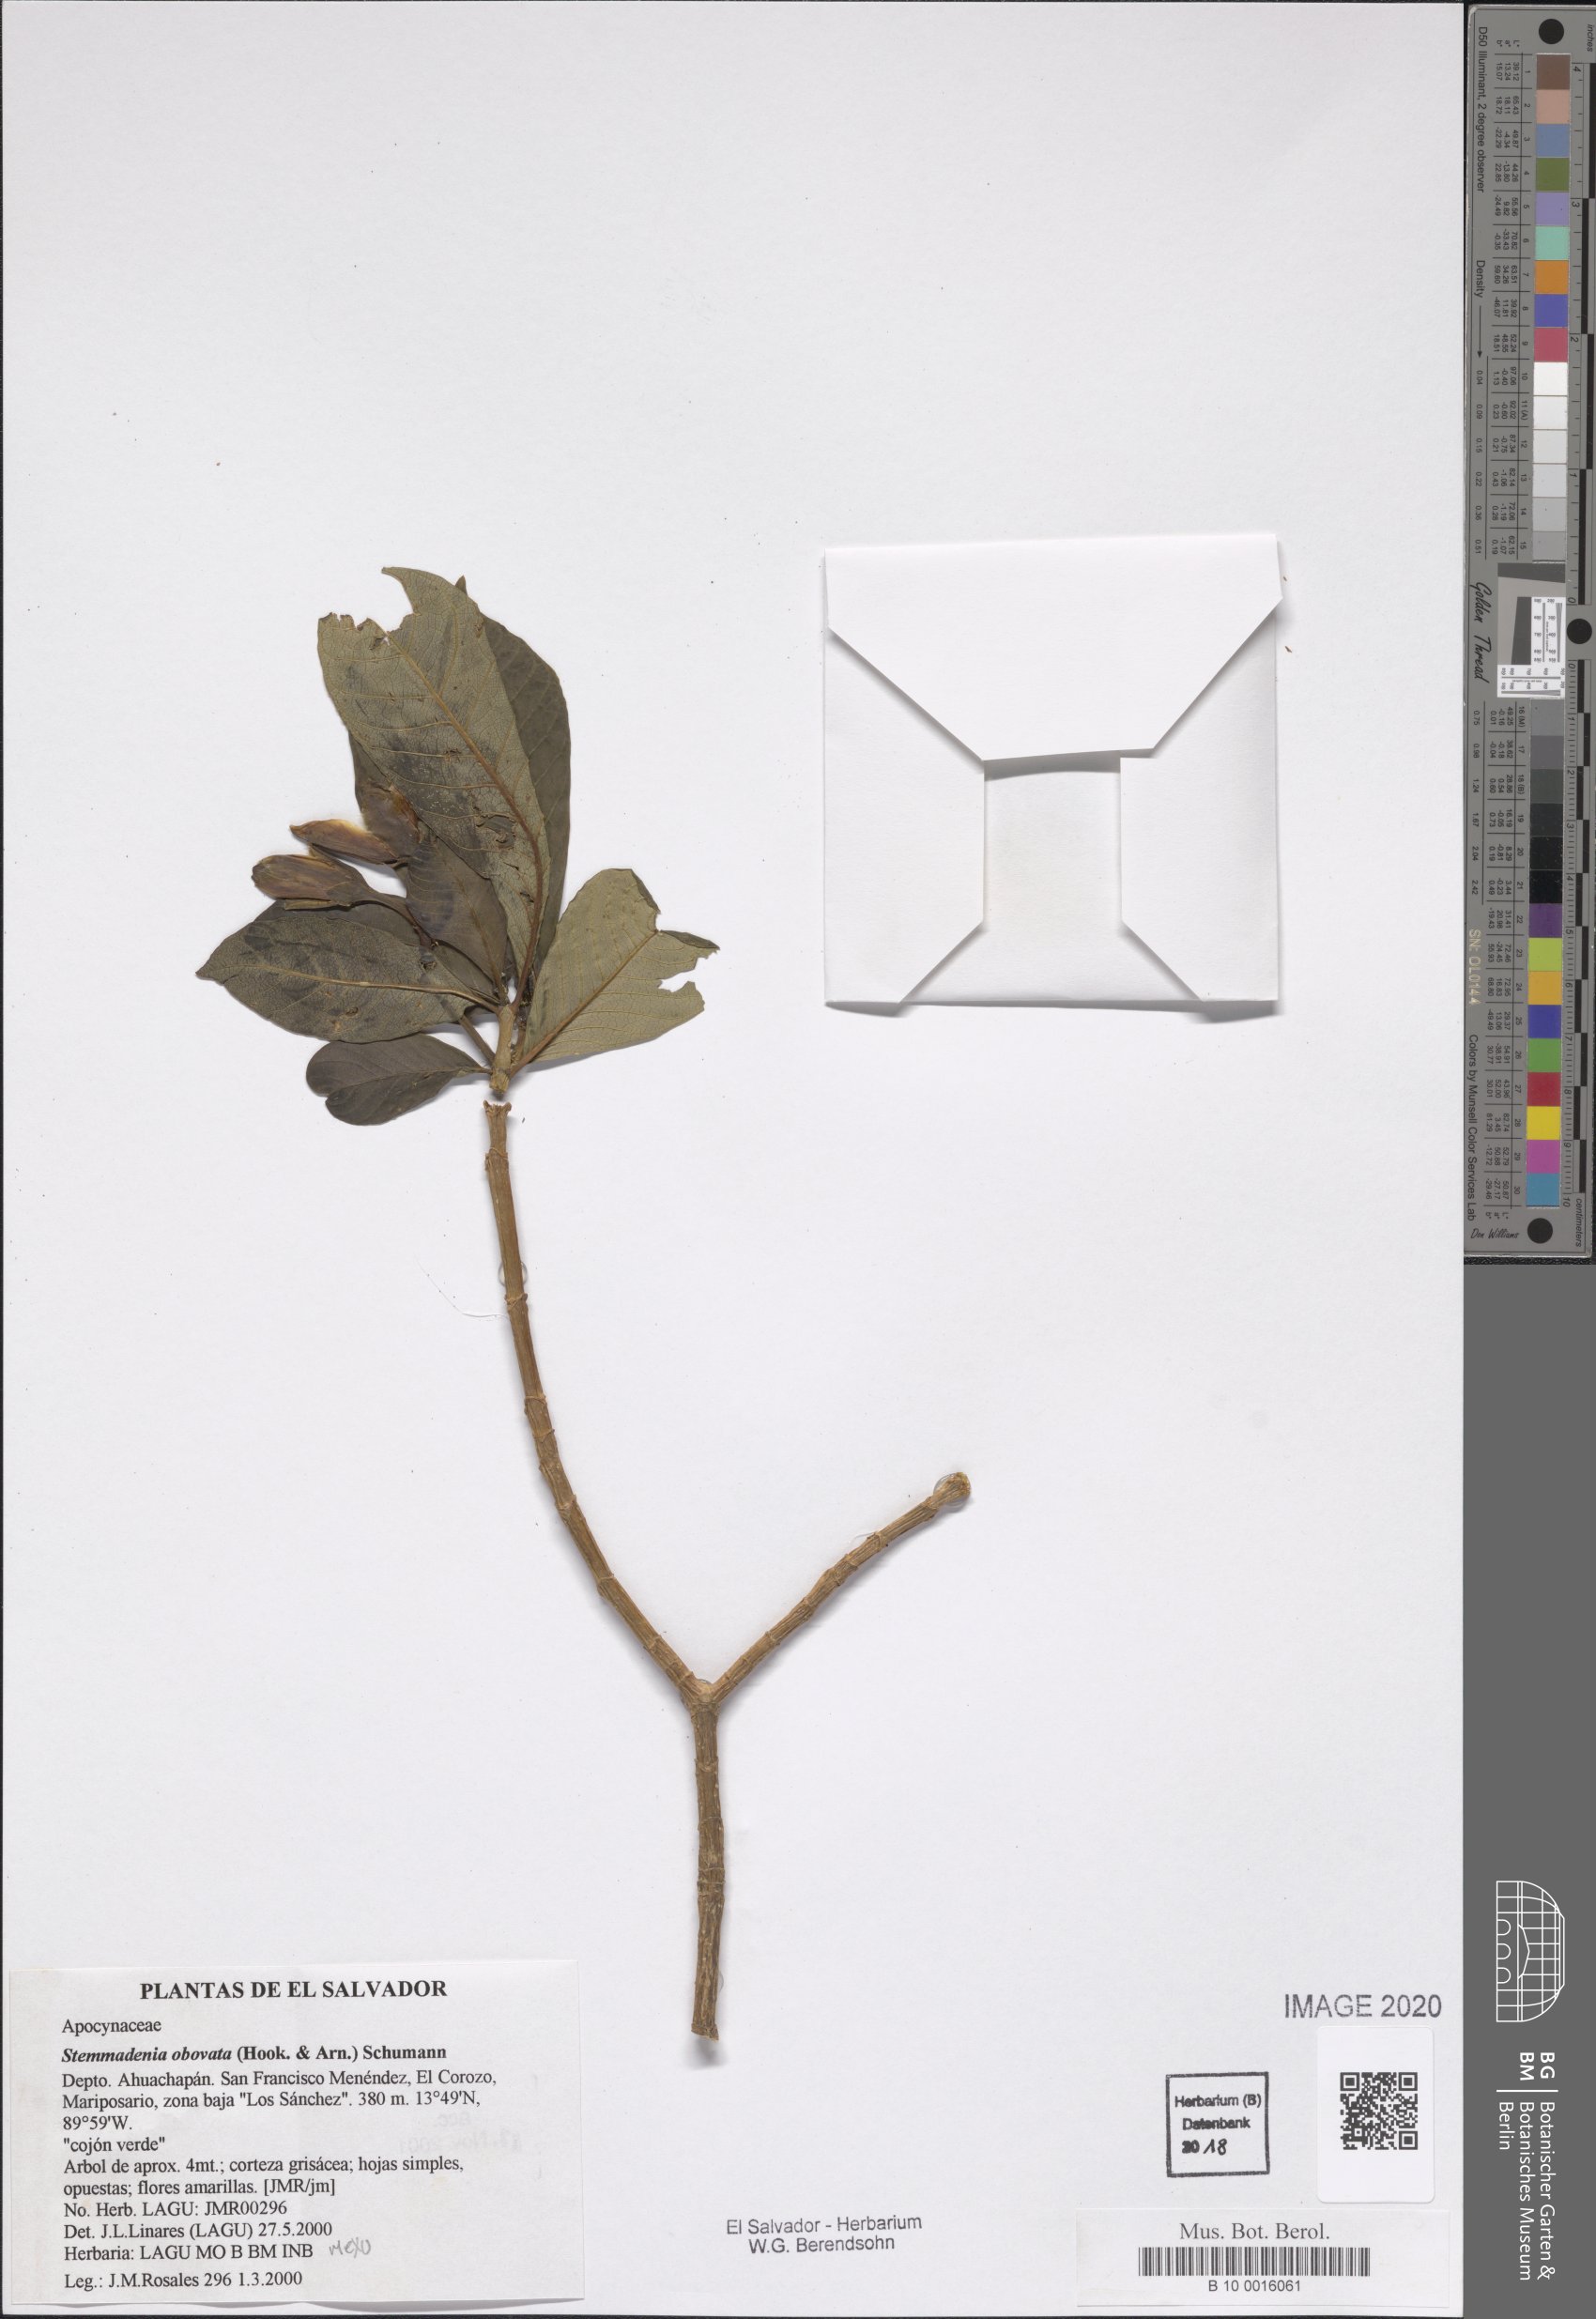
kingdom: Plantae
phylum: Tracheophyta
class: Magnoliopsida
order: Gentianales
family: Apocynaceae
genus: Tabernaemontana
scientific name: Tabernaemontana glabra
